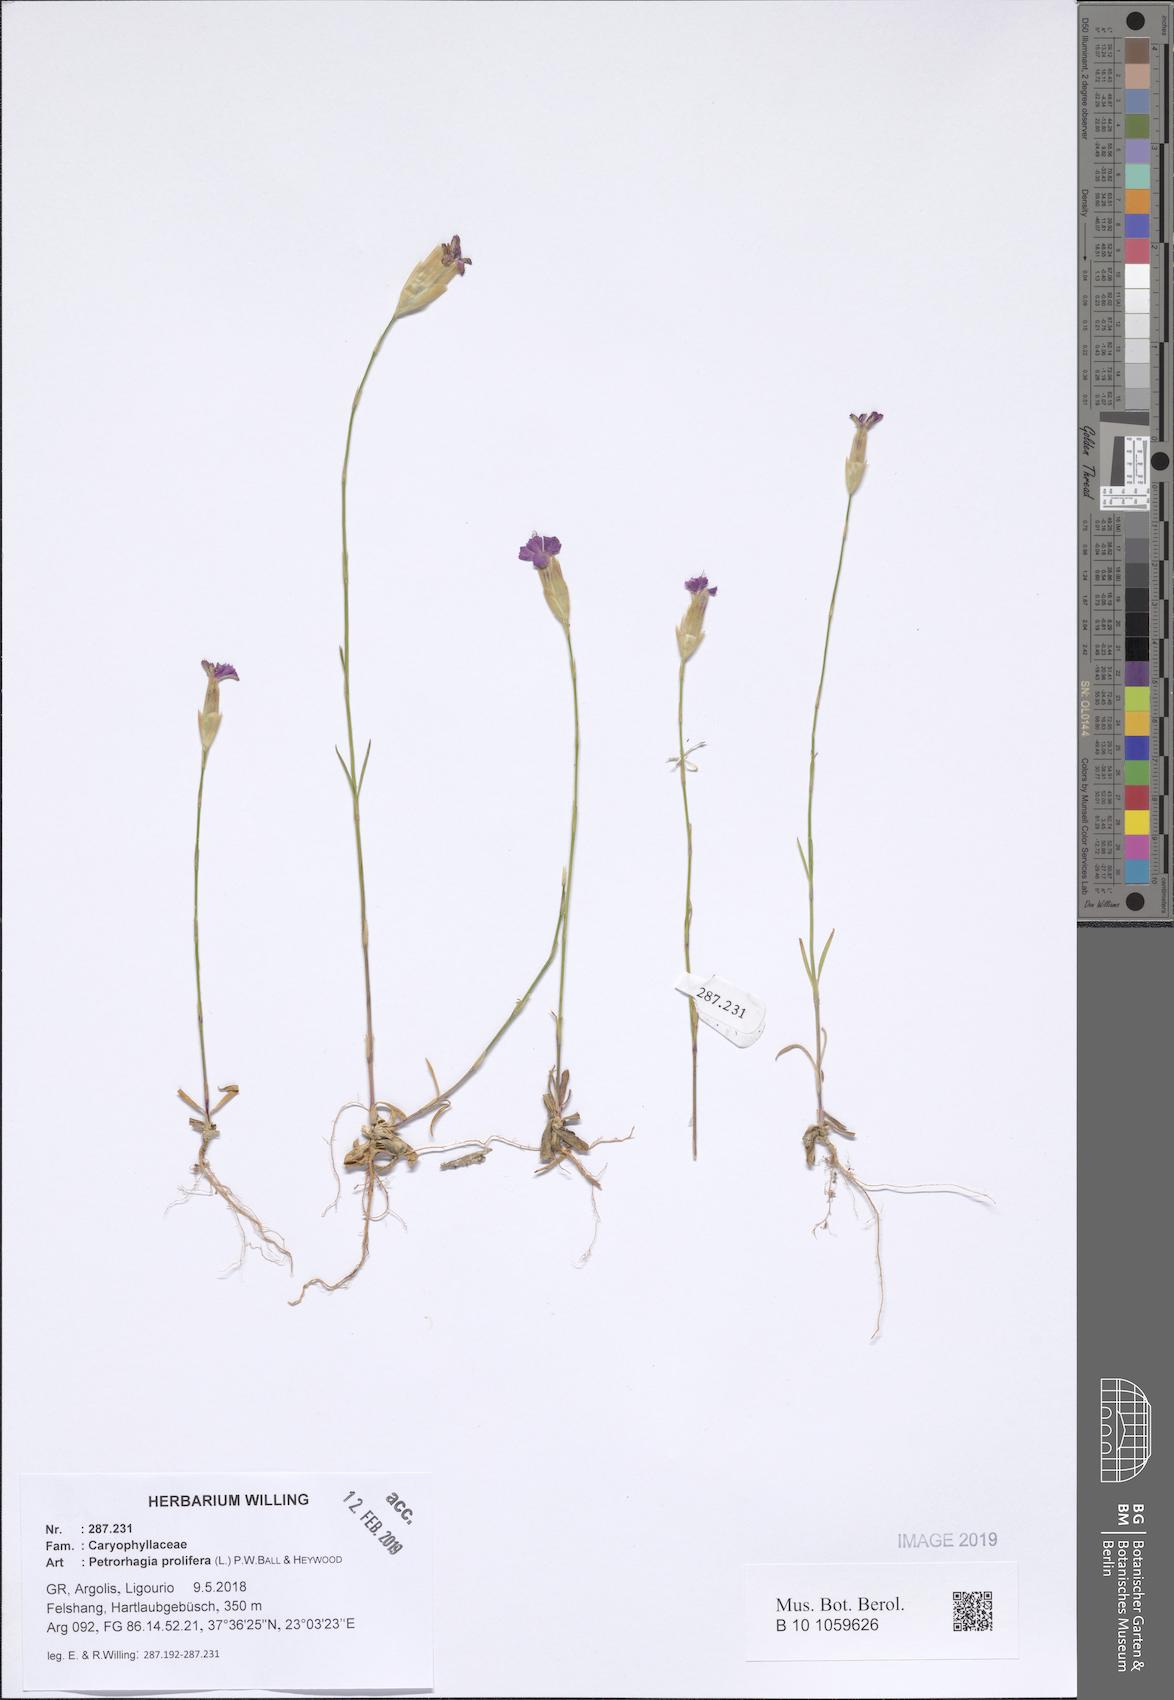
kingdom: Plantae
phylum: Tracheophyta
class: Magnoliopsida
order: Caryophyllales
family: Caryophyllaceae
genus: Petrorhagia
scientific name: Petrorhagia prolifera
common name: Proliferous pink
